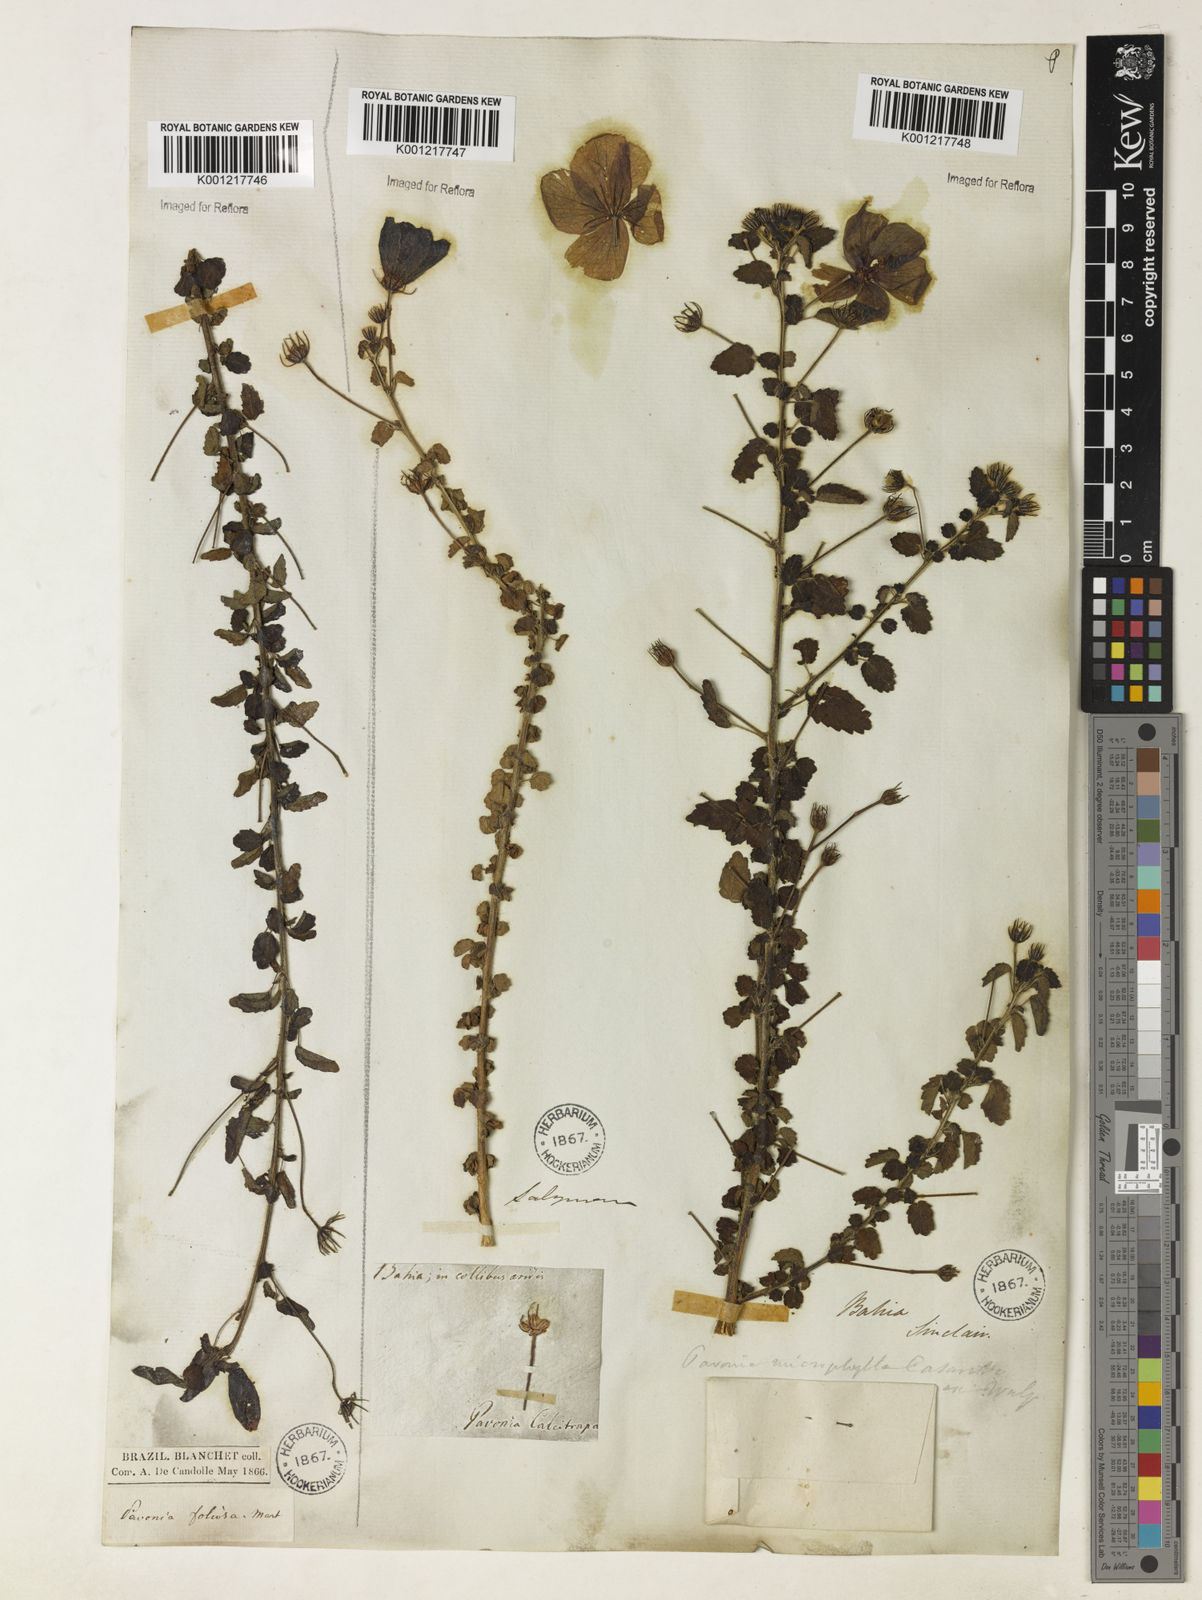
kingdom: Plantae
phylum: Tracheophyta
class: Magnoliopsida
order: Malvales
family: Malvaceae
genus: Pavonia
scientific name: Pavonia martii
